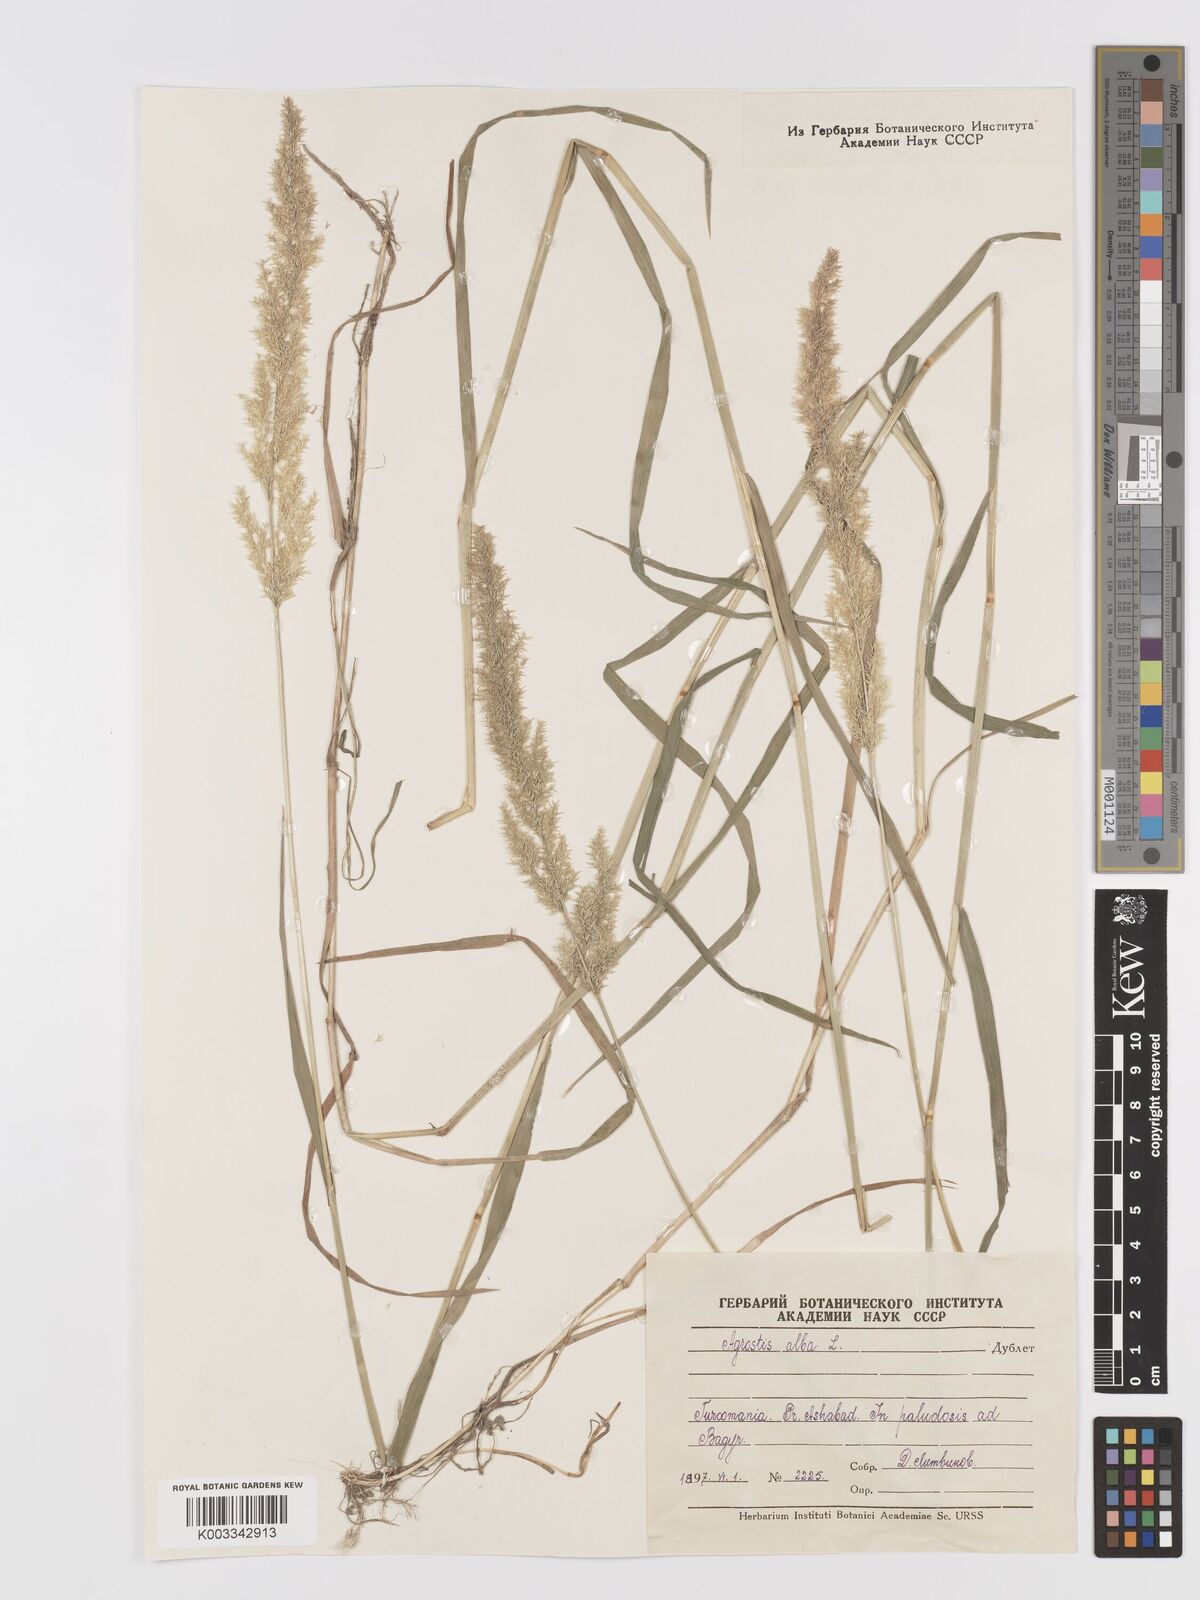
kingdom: Plantae
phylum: Tracheophyta
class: Liliopsida
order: Poales
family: Poaceae
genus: Agrostis
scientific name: Agrostis gigantea
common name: Black bent
